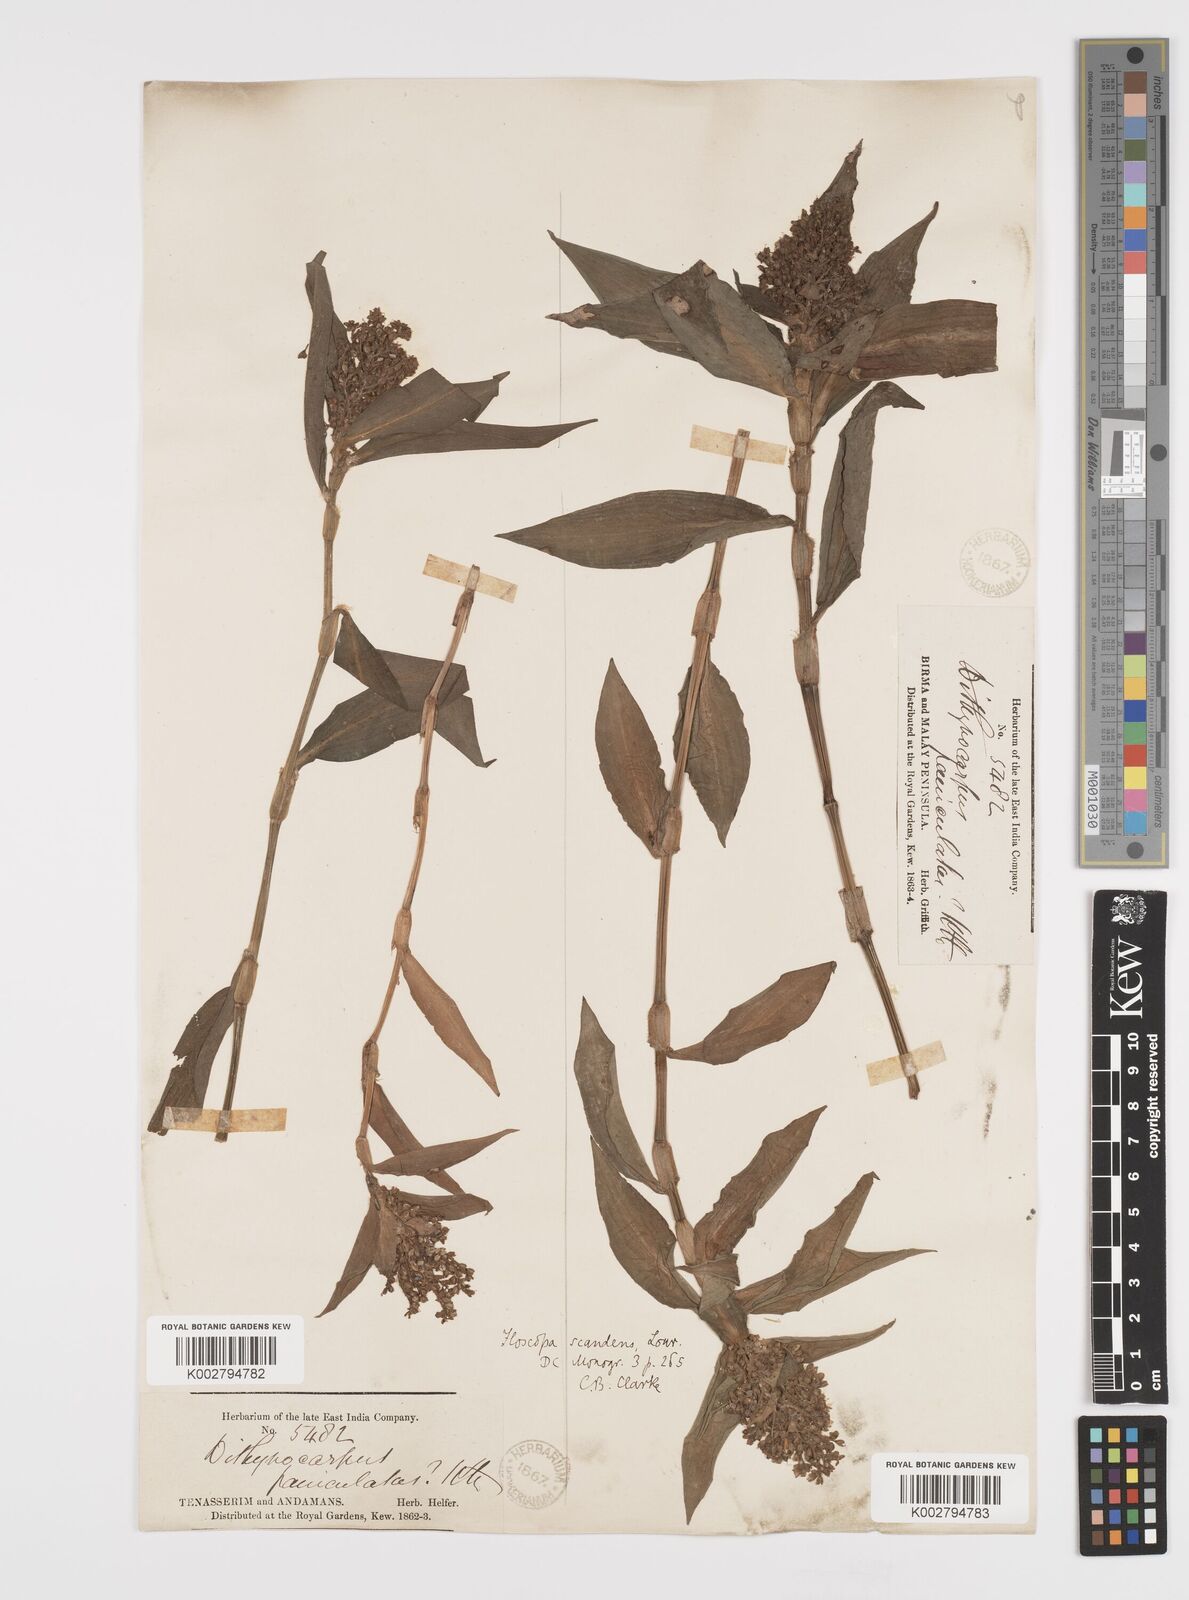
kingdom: Plantae
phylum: Tracheophyta
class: Liliopsida
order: Commelinales
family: Commelinaceae
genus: Floscopa
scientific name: Floscopa scandens
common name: Climbing flower cup
